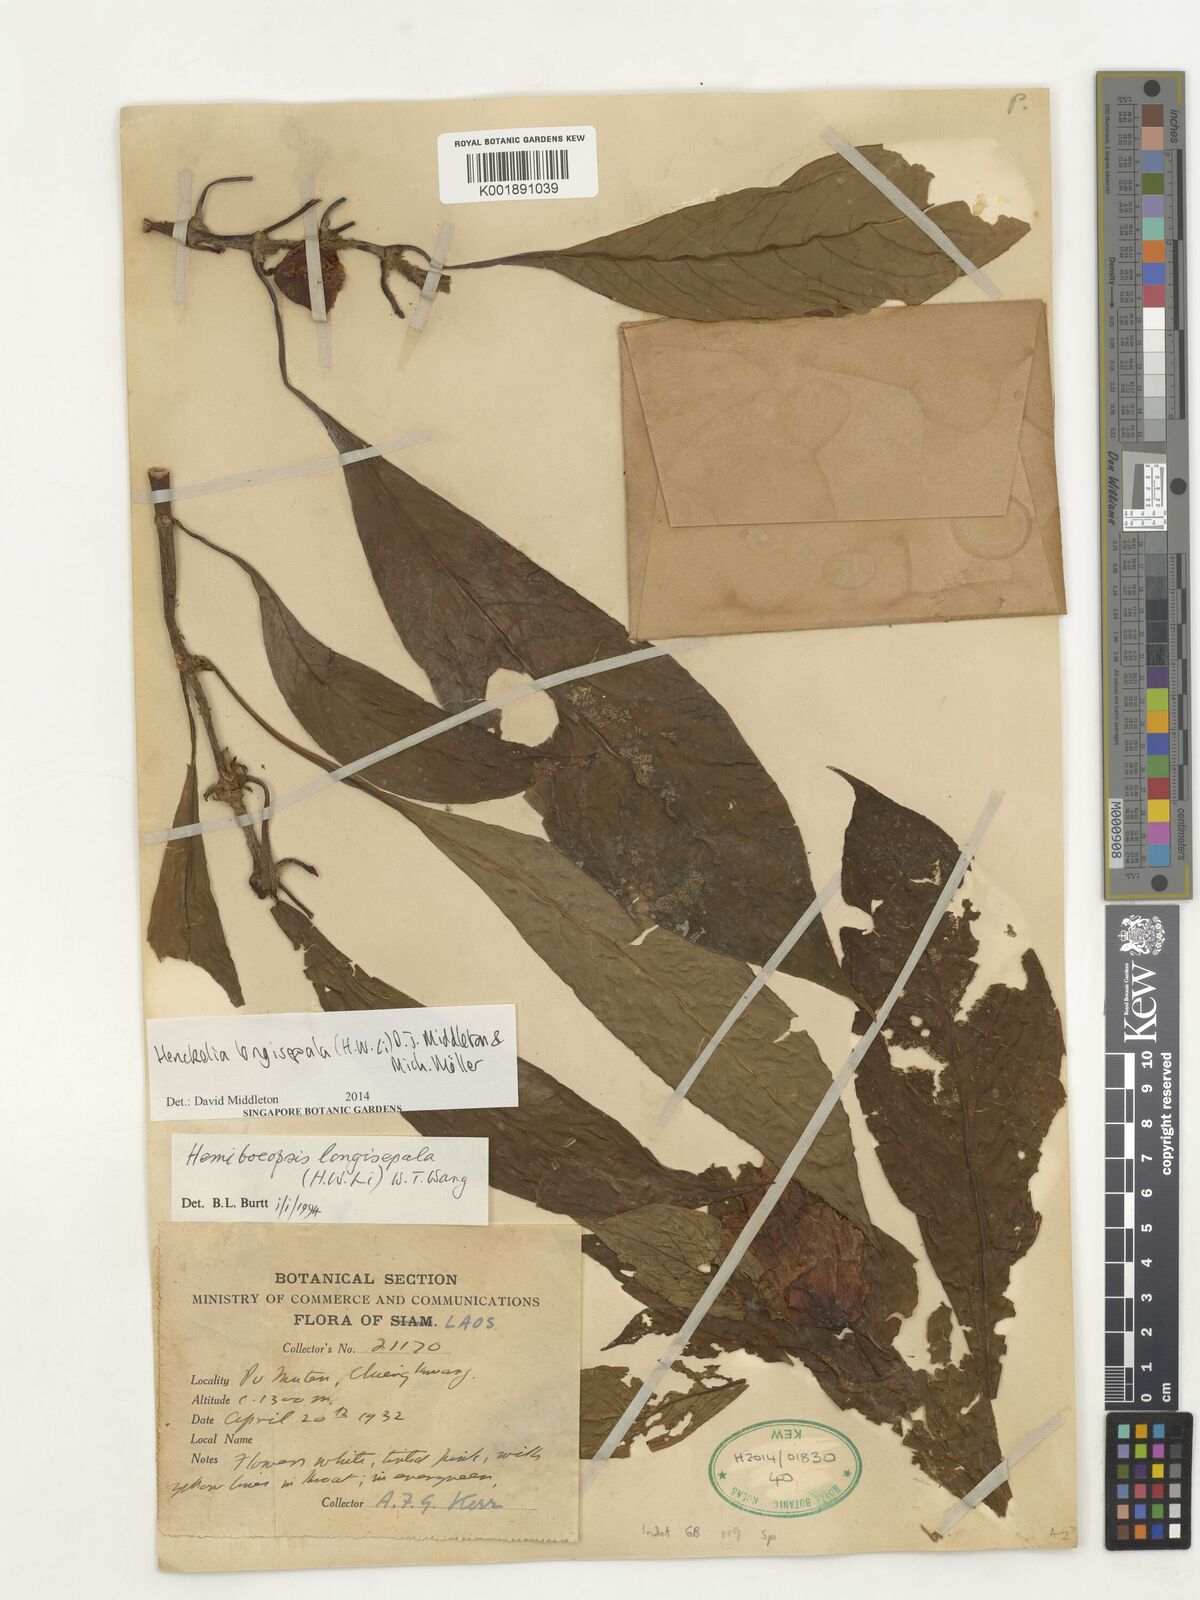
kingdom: Plantae
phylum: Tracheophyta
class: Magnoliopsida
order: Lamiales
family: Gesneriaceae
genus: Henckelia
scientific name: Henckelia longisepala
